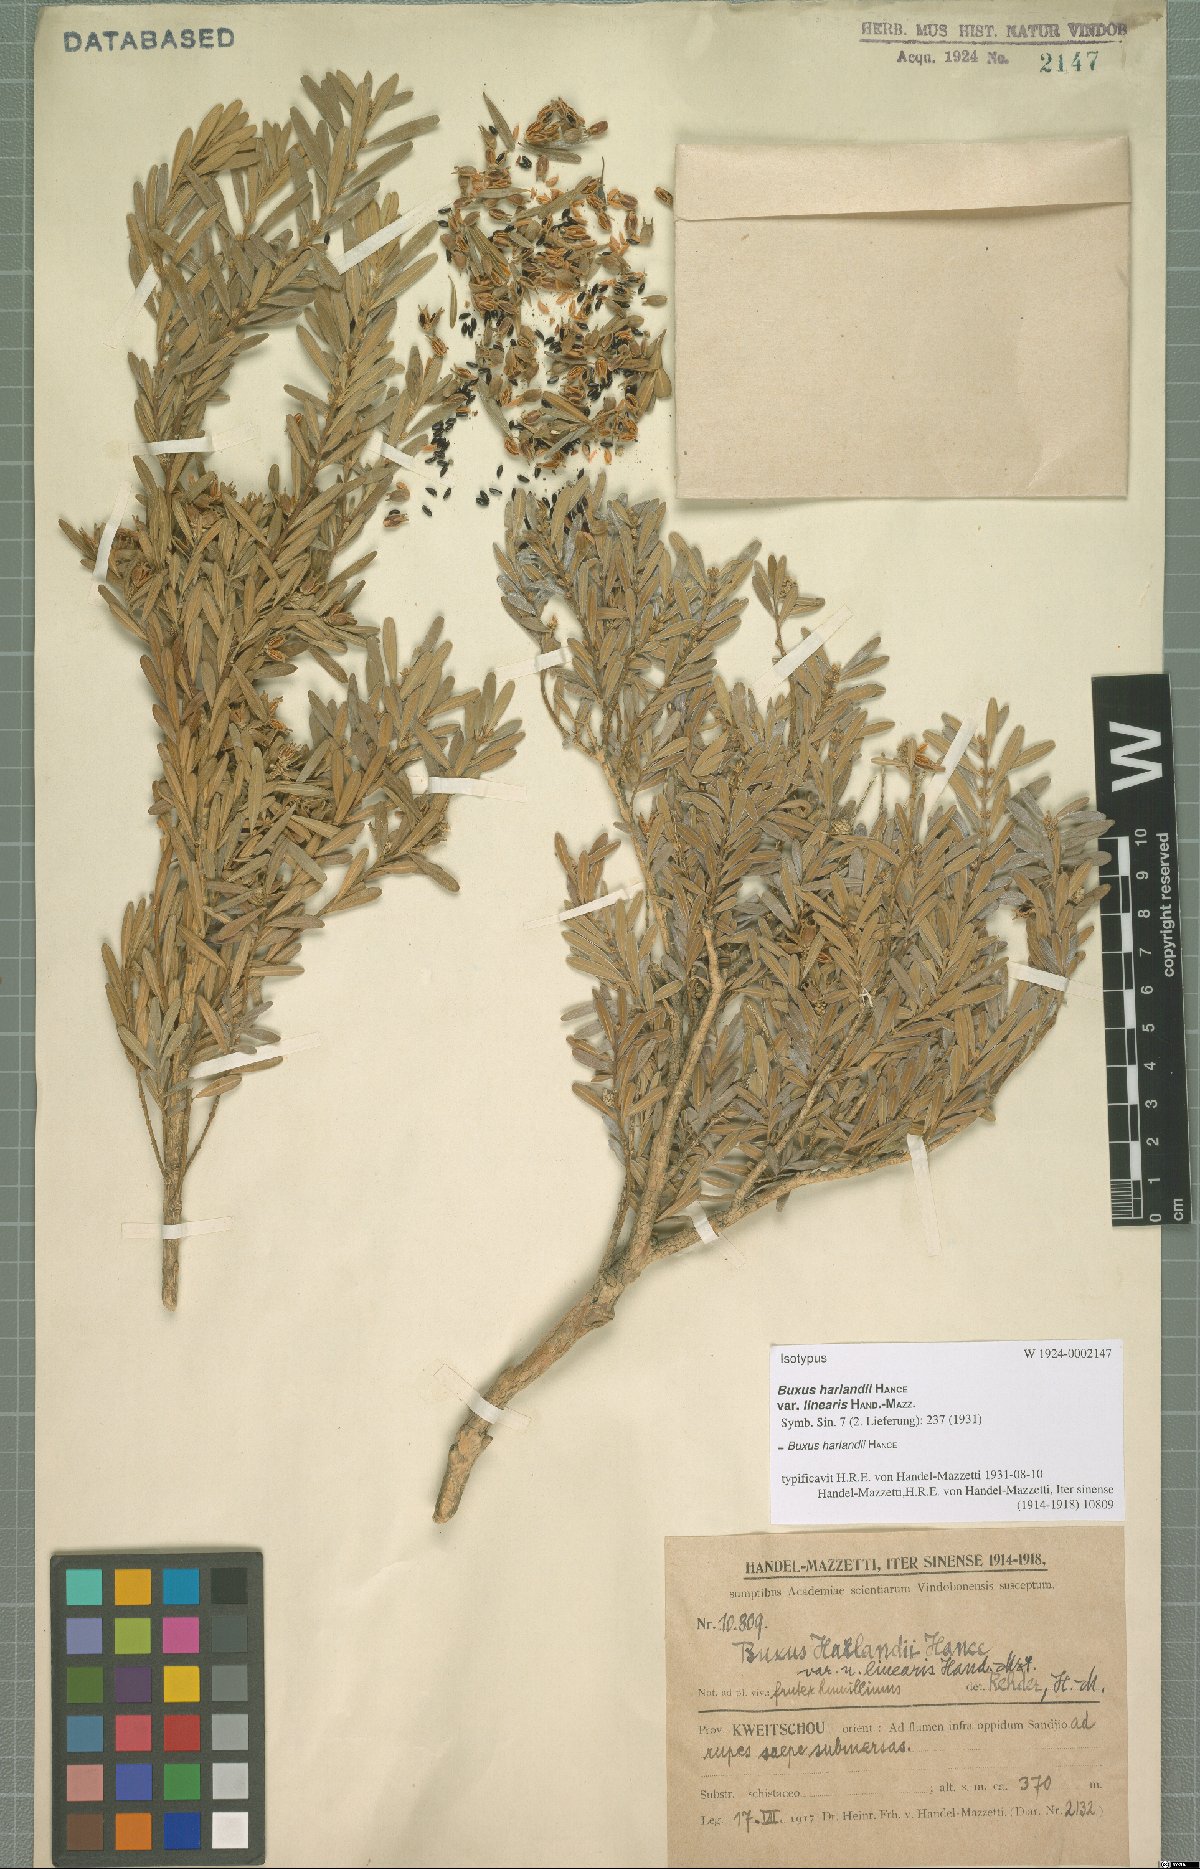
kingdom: Plantae
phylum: Tracheophyta
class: Magnoliopsida
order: Buxales
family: Buxaceae
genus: Buxus
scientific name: Buxus harlandii
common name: Harland's boxwood
